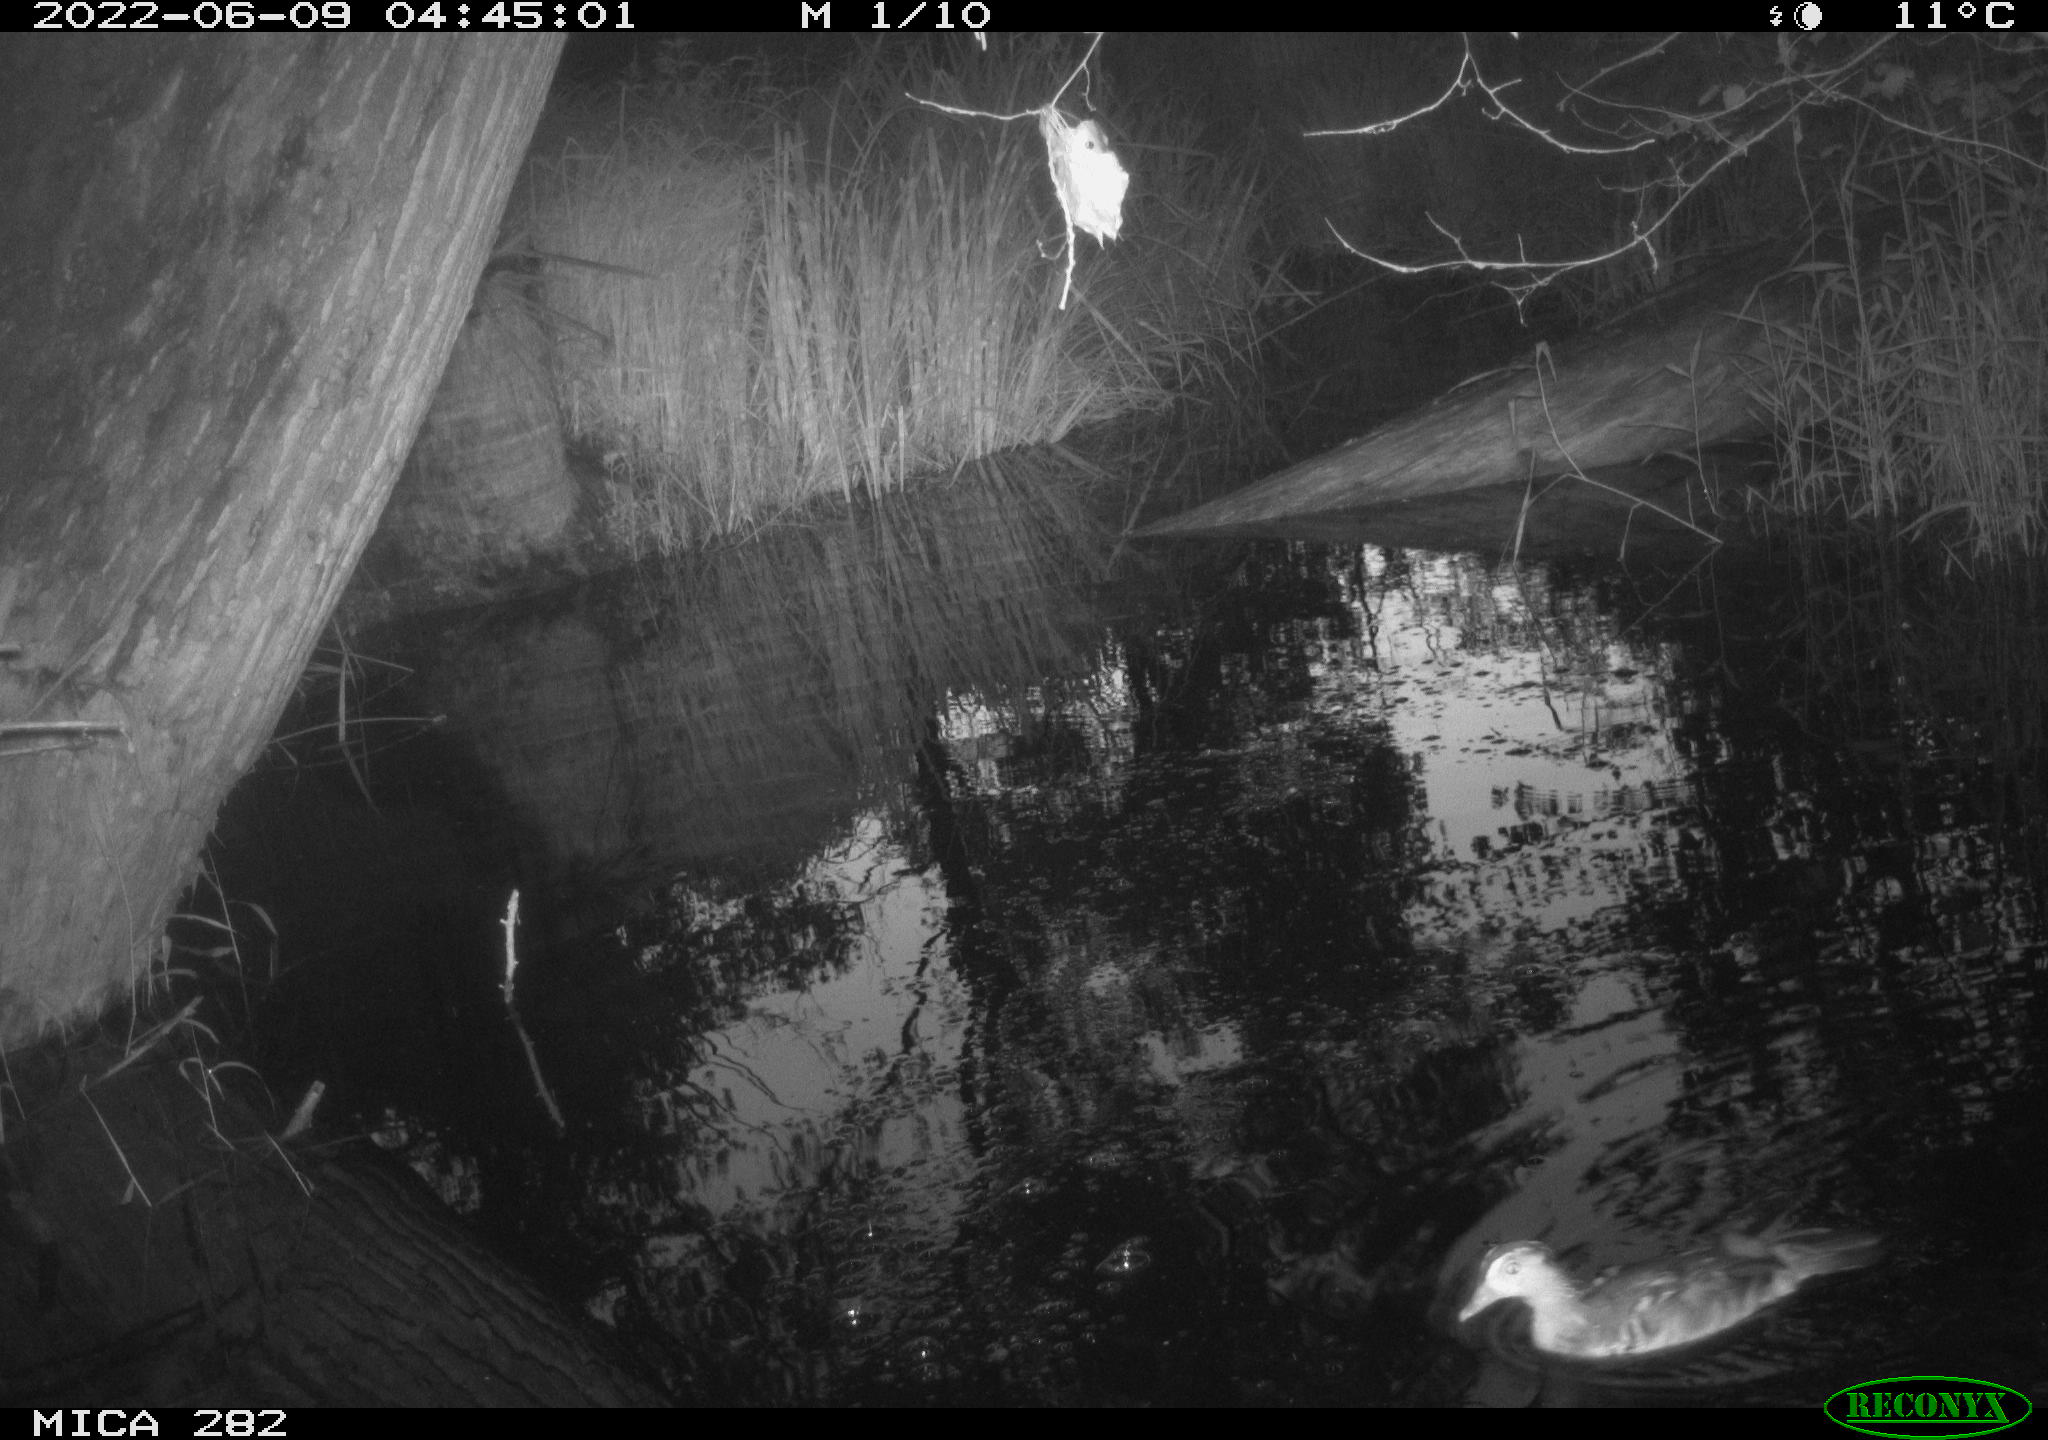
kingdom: Animalia
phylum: Chordata
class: Aves
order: Anseriformes
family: Anatidae
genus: Aix
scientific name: Aix galericulata
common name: Mandarin duck
